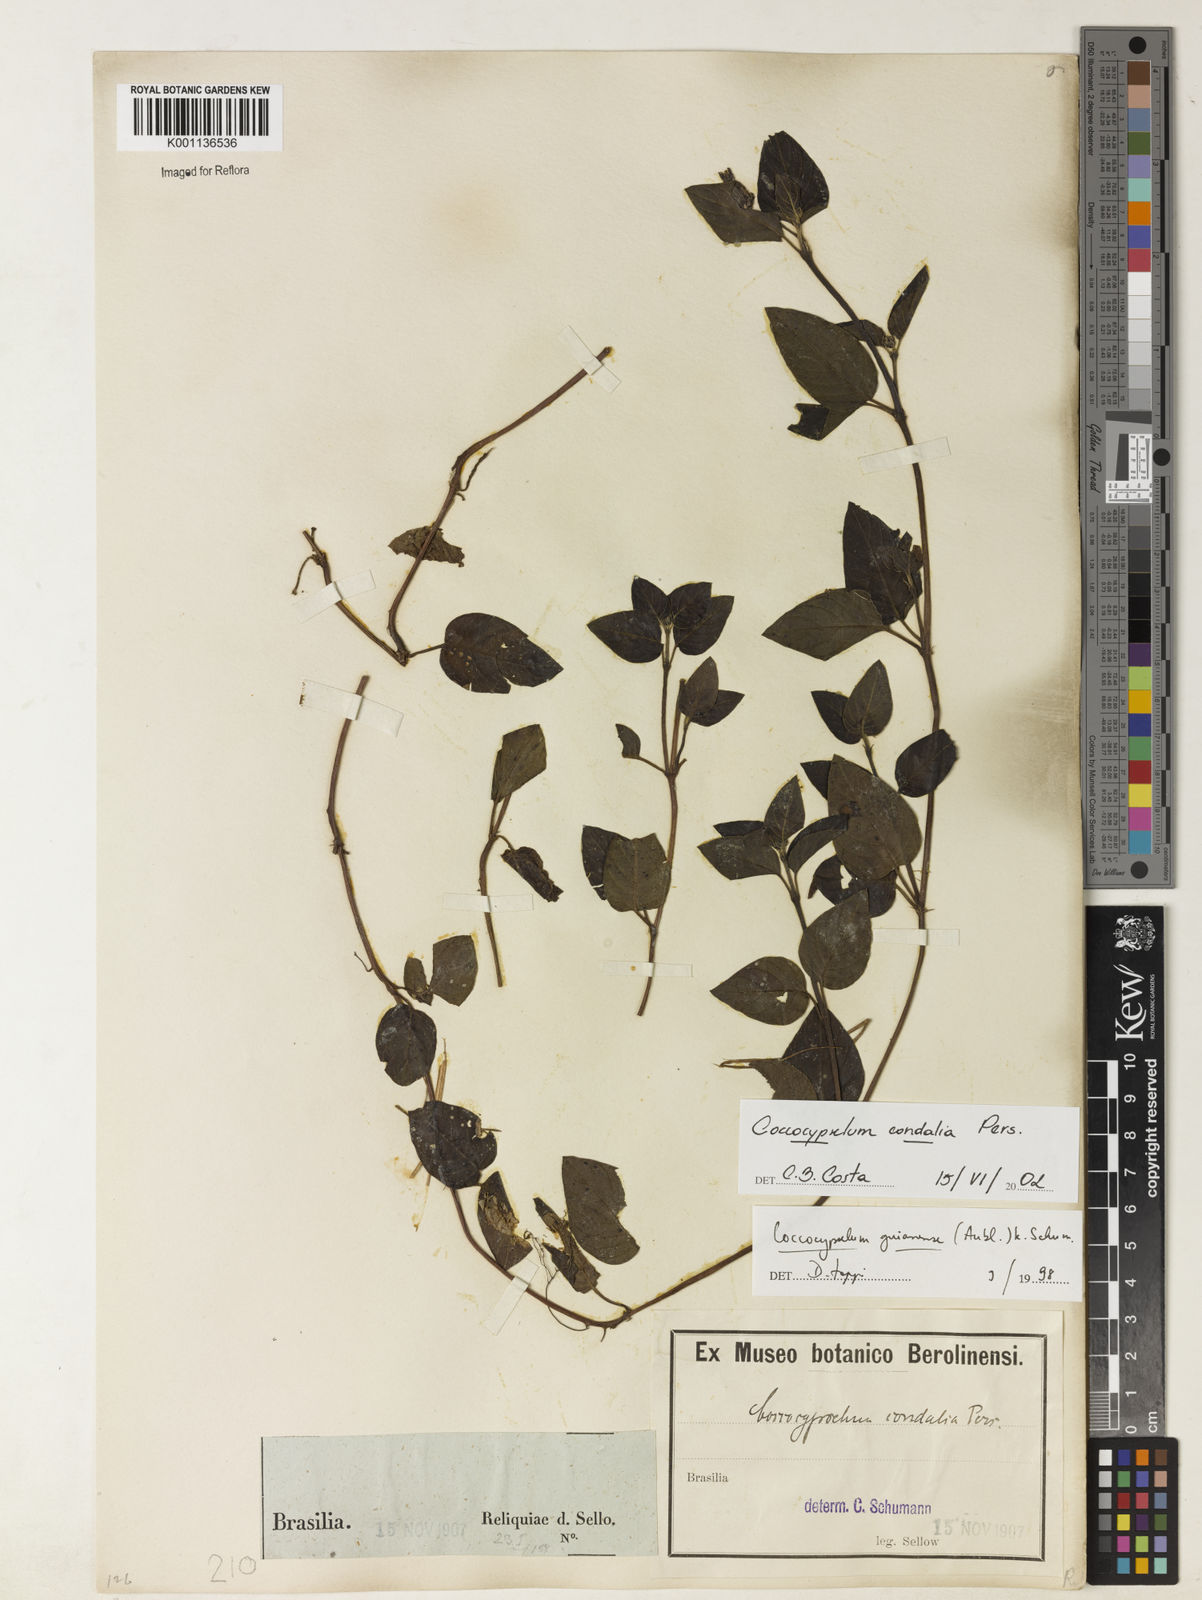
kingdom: Plantae
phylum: Tracheophyta
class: Magnoliopsida
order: Gentianales
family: Rubiaceae
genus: Coccocypselum
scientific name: Coccocypselum condalia
